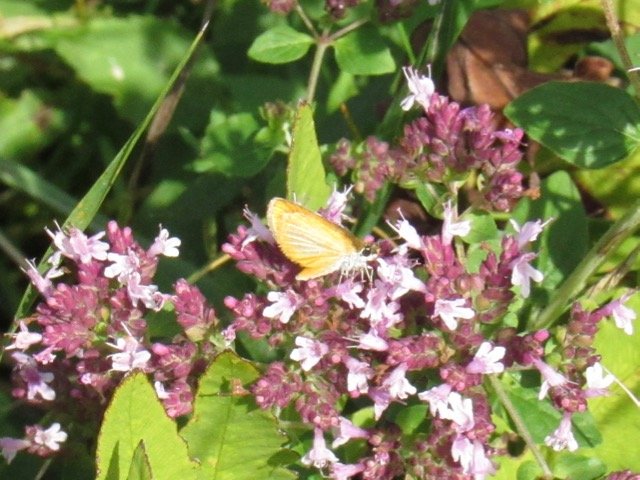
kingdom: Animalia
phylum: Arthropoda
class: Insecta
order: Lepidoptera
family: Hesperiidae
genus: Ancyloxypha
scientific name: Ancyloxypha numitor
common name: Least Skipper
